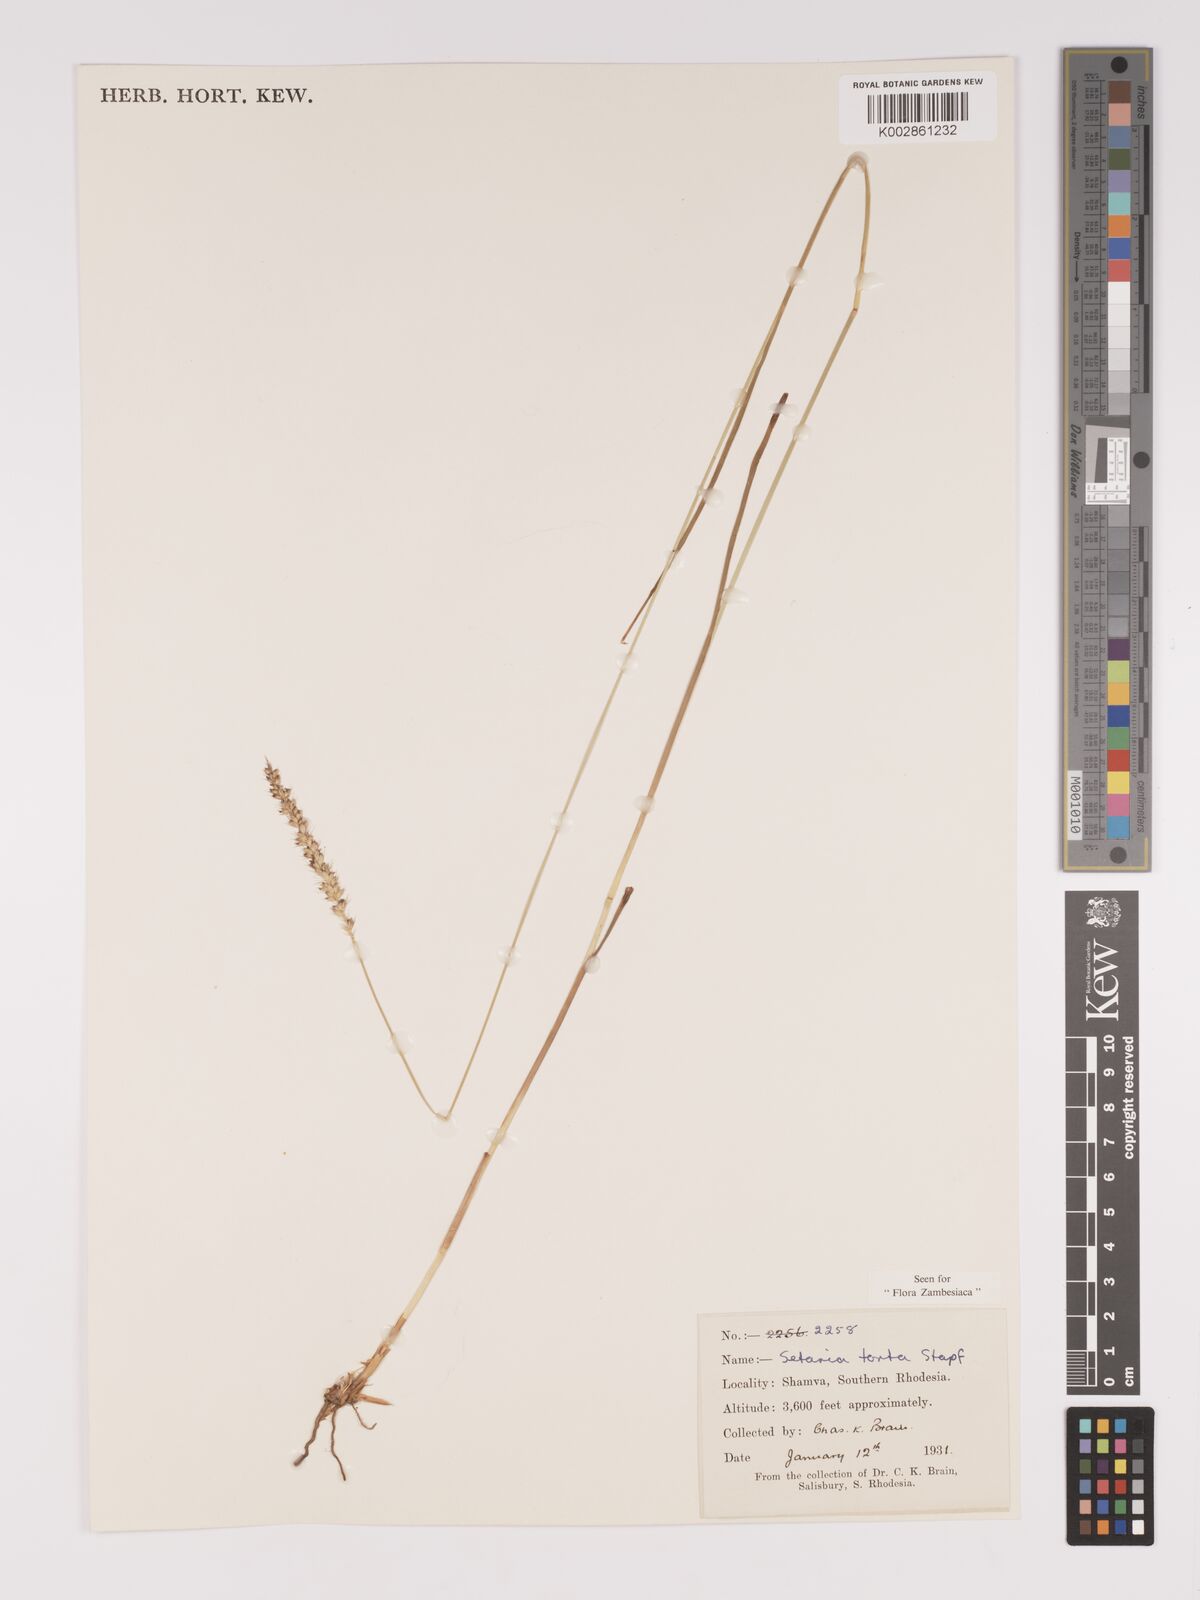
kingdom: Plantae
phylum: Tracheophyta
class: Liliopsida
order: Poales
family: Poaceae
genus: Setaria
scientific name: Setaria sphacelata
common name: African bristlegrass
